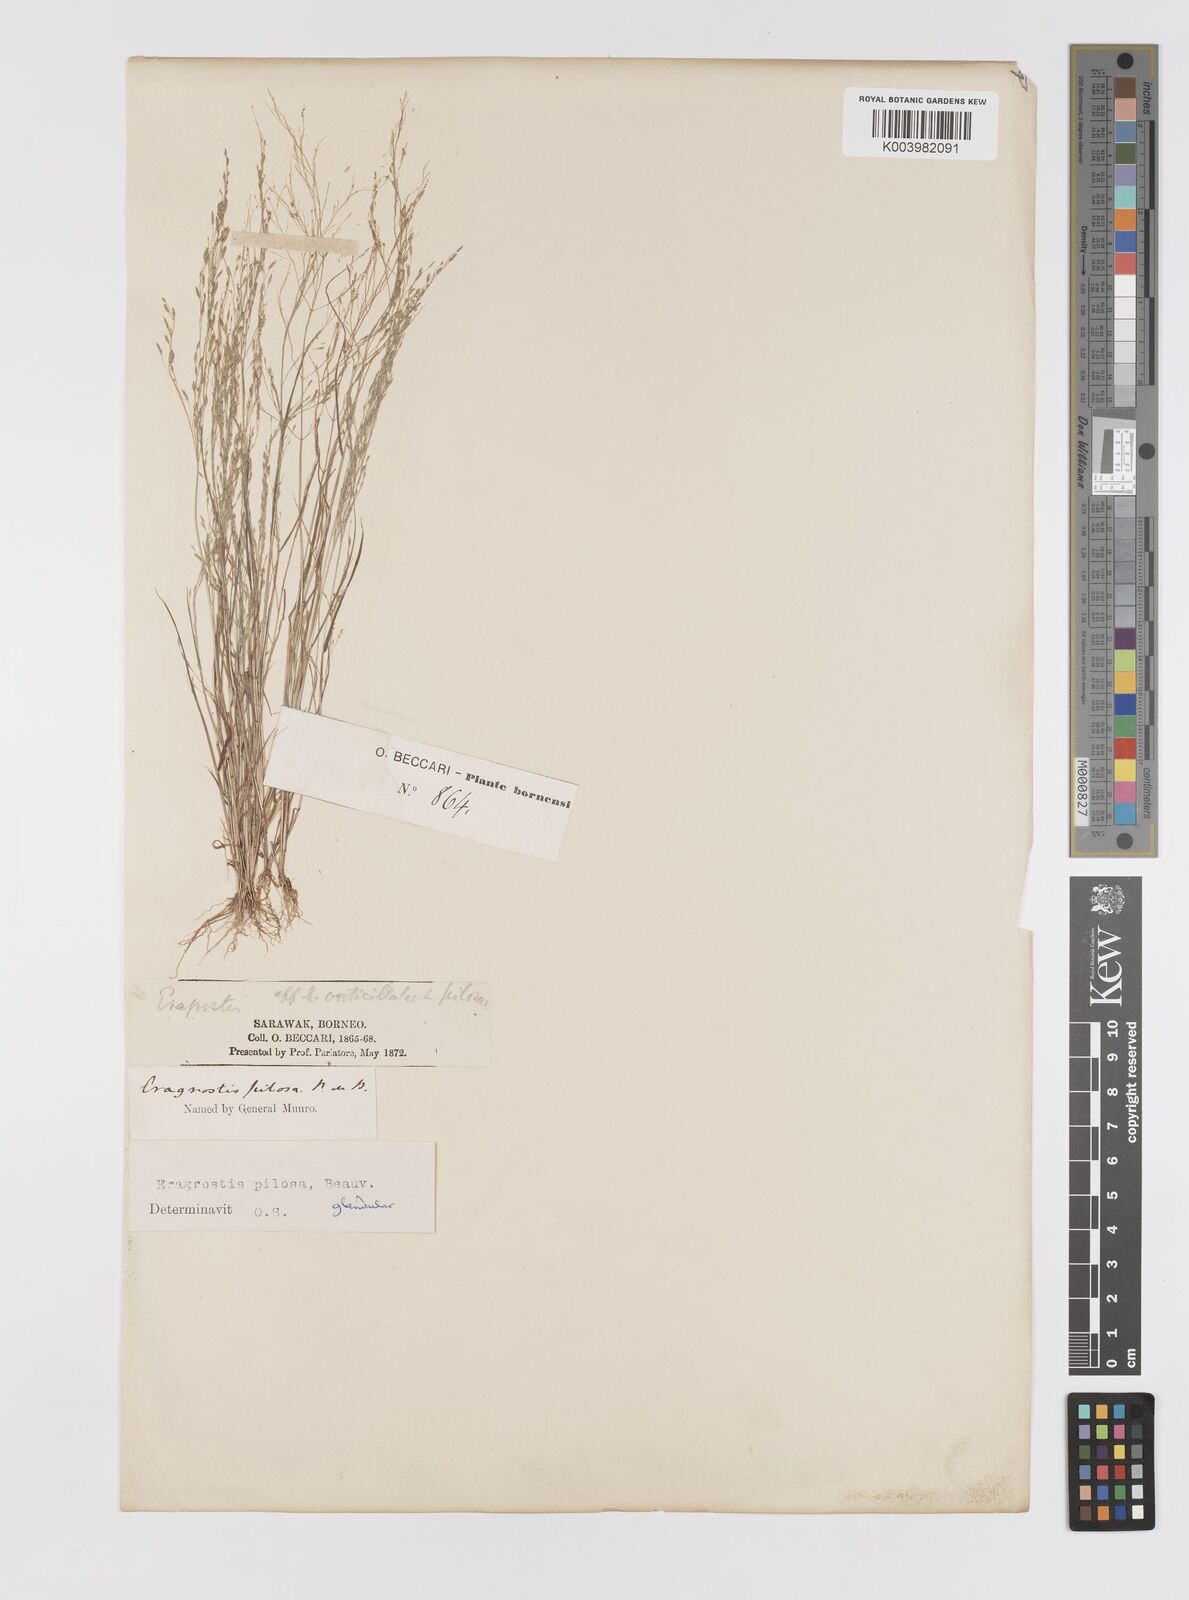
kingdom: Plantae
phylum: Tracheophyta
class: Liliopsida
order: Poales
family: Poaceae
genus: Eragrostis
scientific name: Eragrostis pilosa
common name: Indian lovegrass
